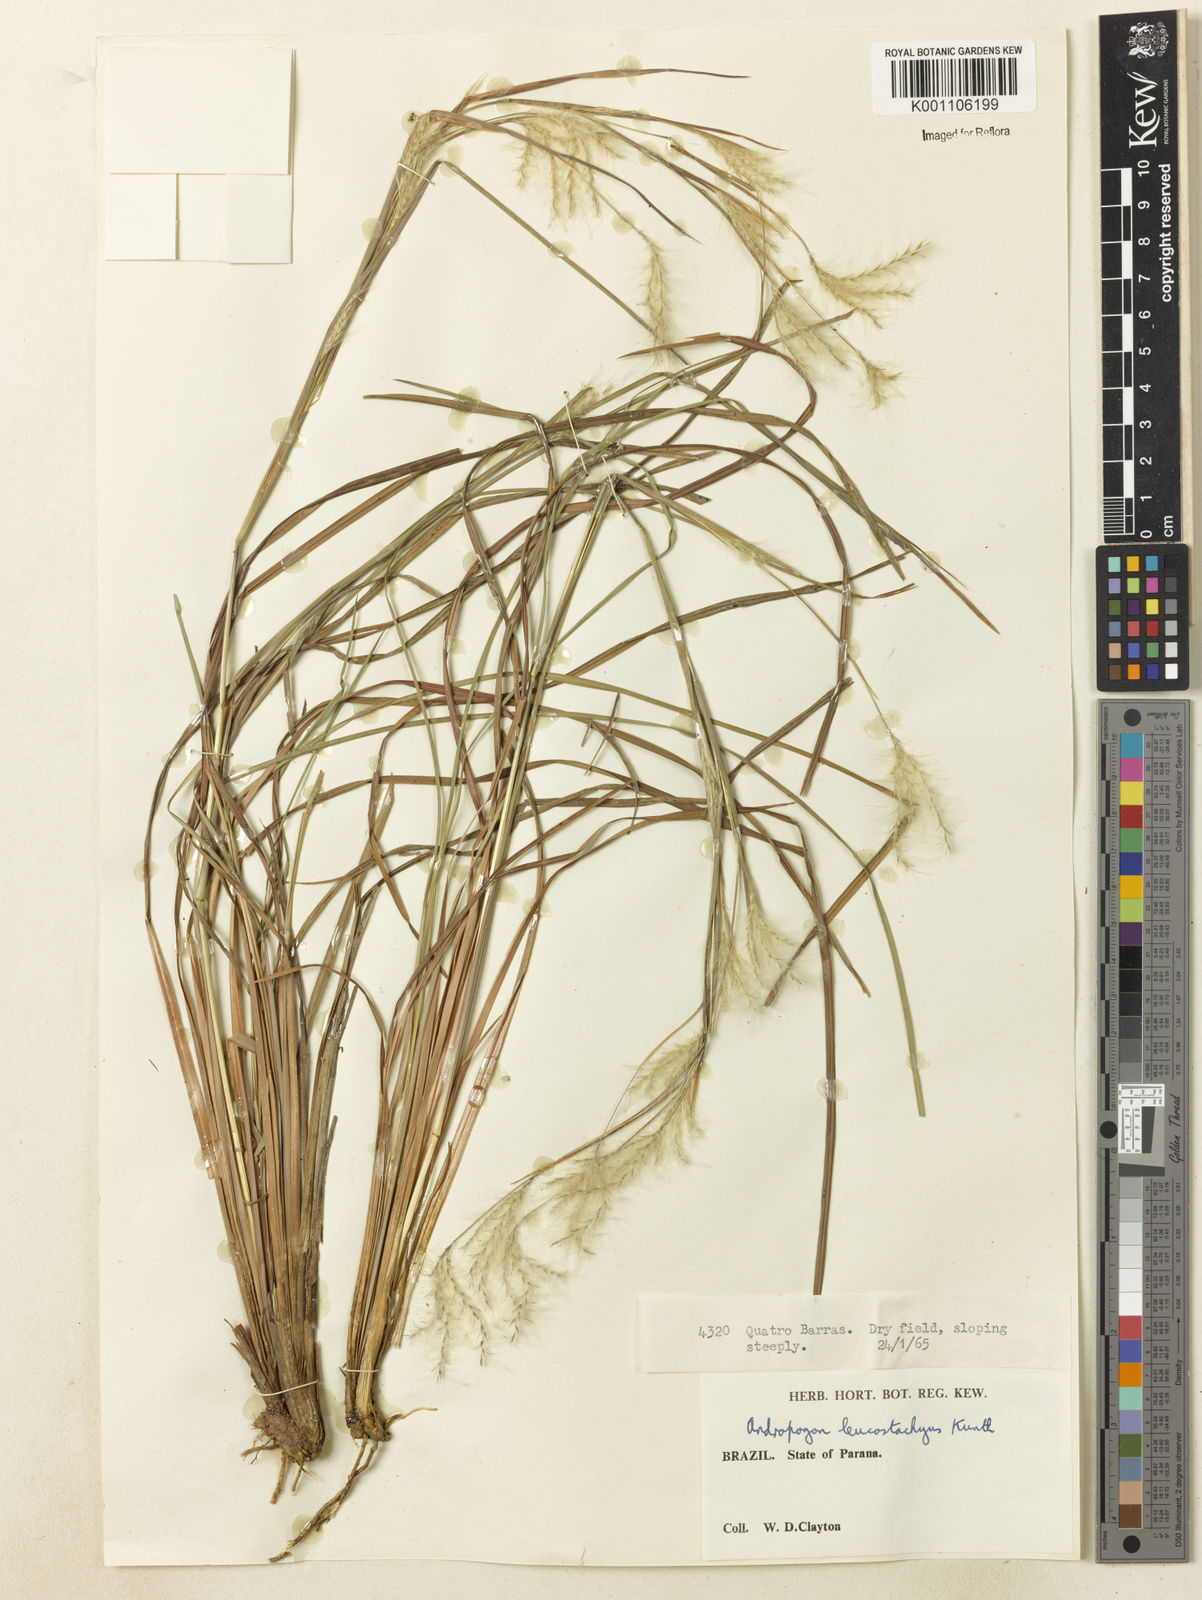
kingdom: Plantae
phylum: Tracheophyta
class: Liliopsida
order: Poales
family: Poaceae
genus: Andropogon
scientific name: Andropogon leucostachyus
